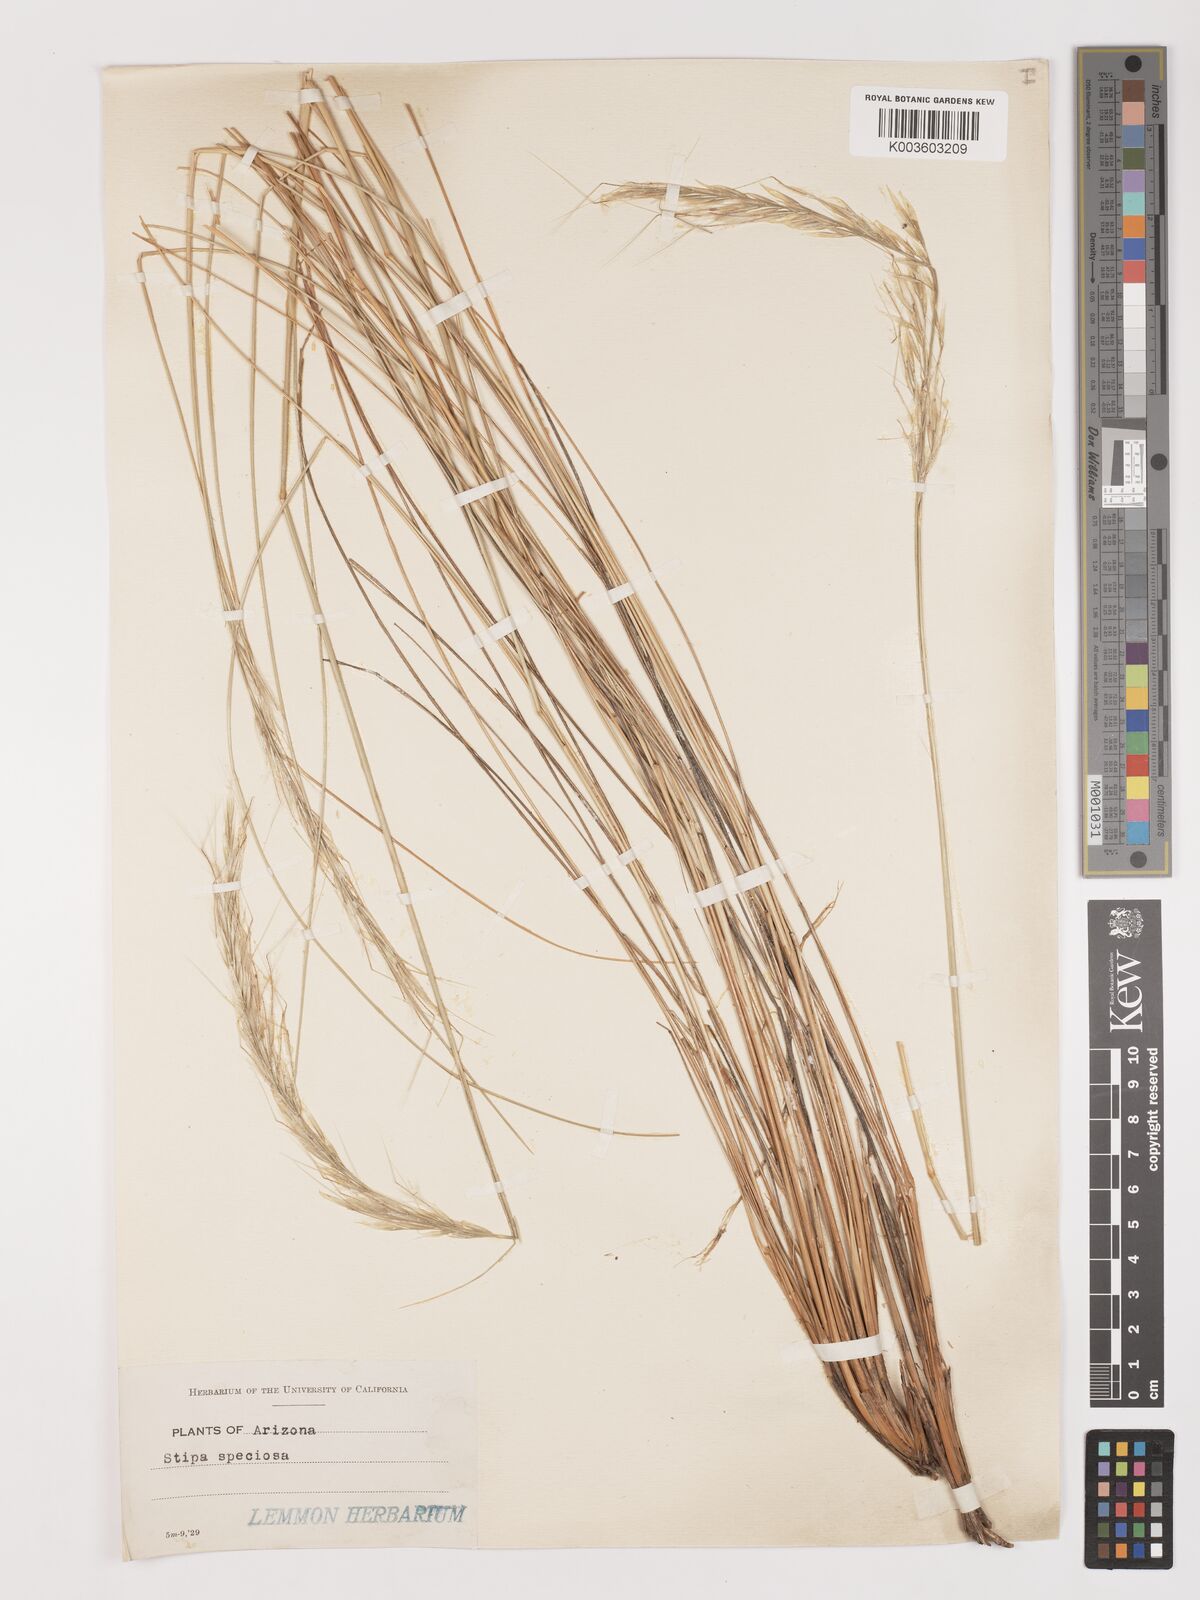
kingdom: Plantae
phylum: Tracheophyta
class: Liliopsida
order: Poales
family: Poaceae
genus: Pappostipa
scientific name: Pappostipa speciosa
